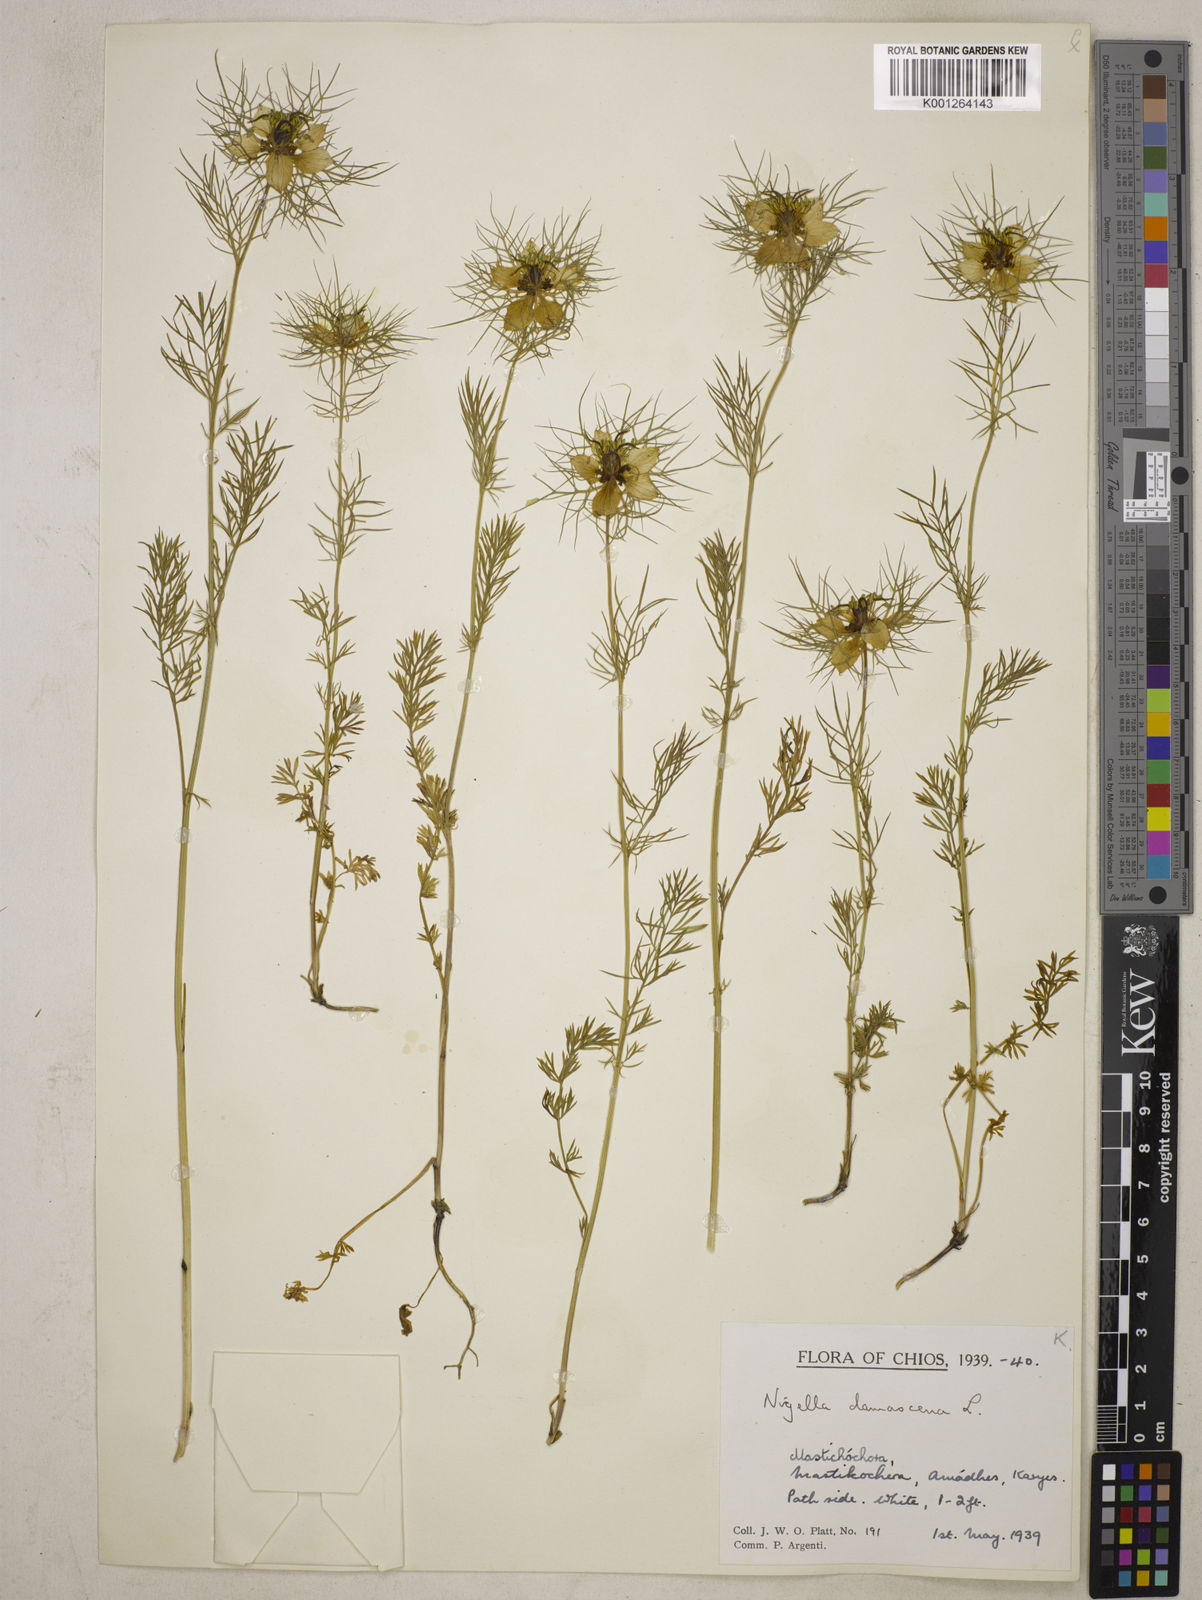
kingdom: Plantae
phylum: Tracheophyta
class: Magnoliopsida
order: Ranunculales
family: Ranunculaceae
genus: Nigella
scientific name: Nigella damascena
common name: Love-in-a-mist
